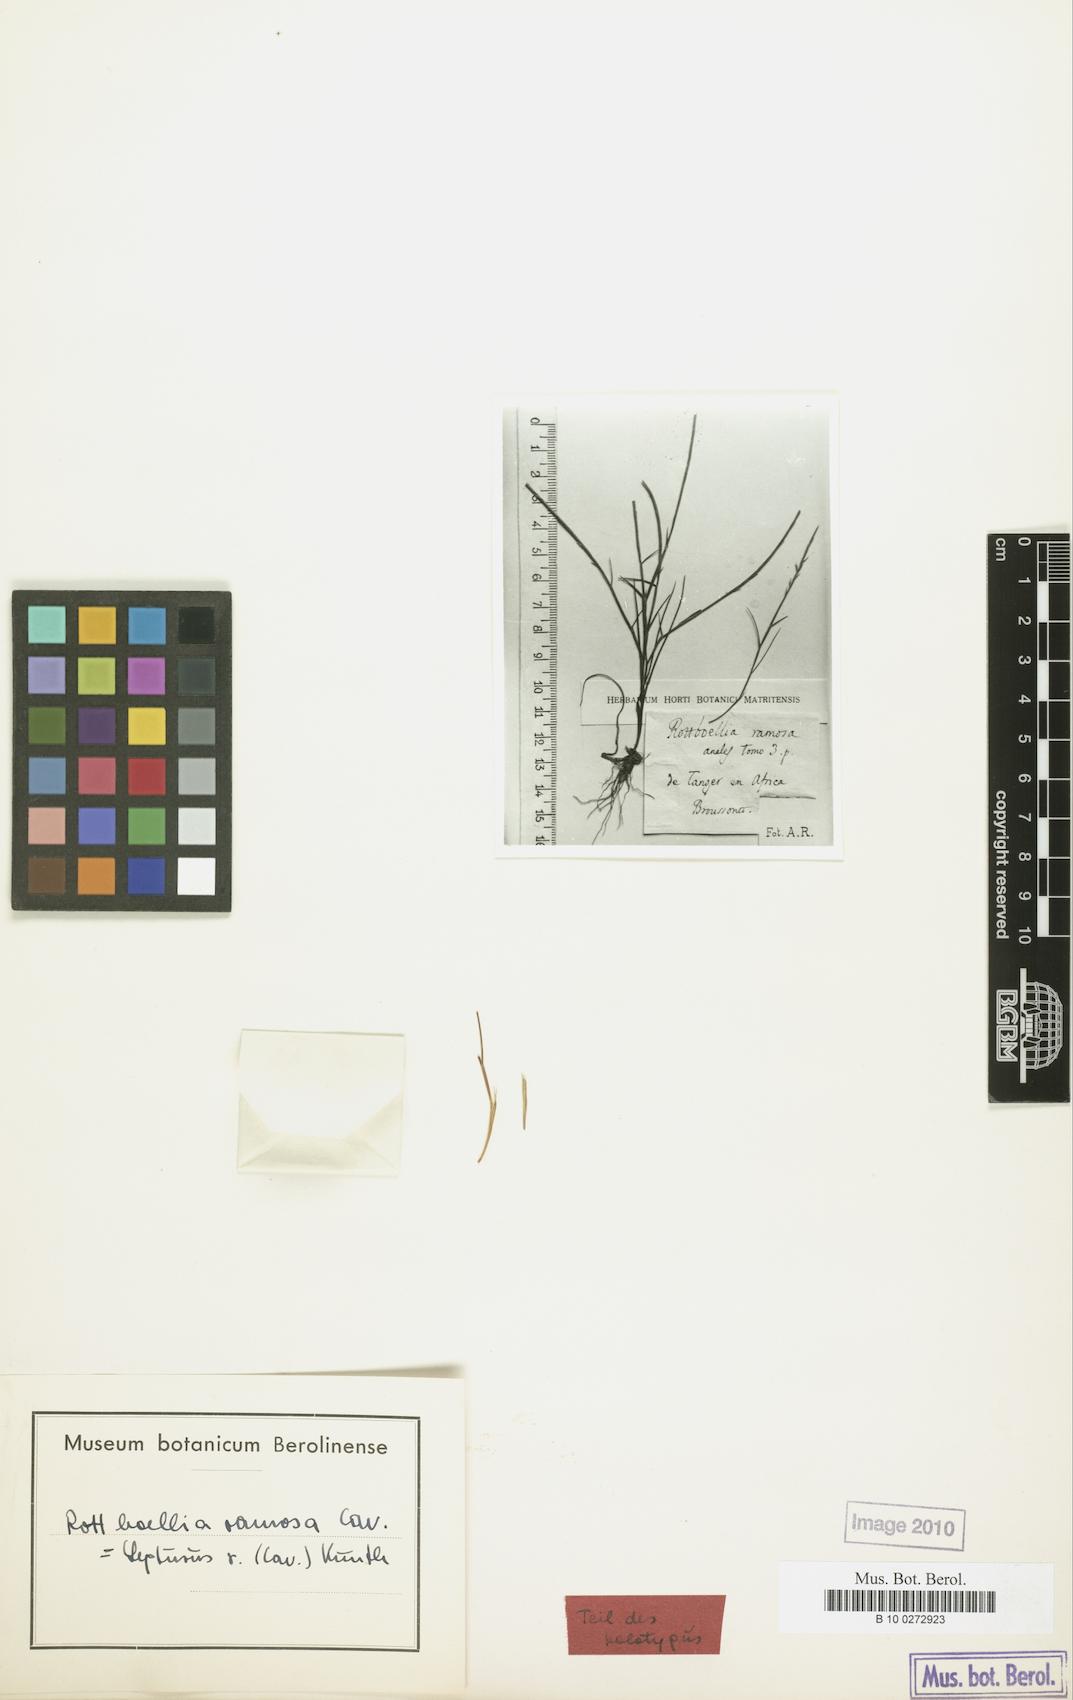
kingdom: Plantae
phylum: Tracheophyta
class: Liliopsida
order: Poales
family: Poaceae
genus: Parapholis
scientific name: Parapholis cylindrica
